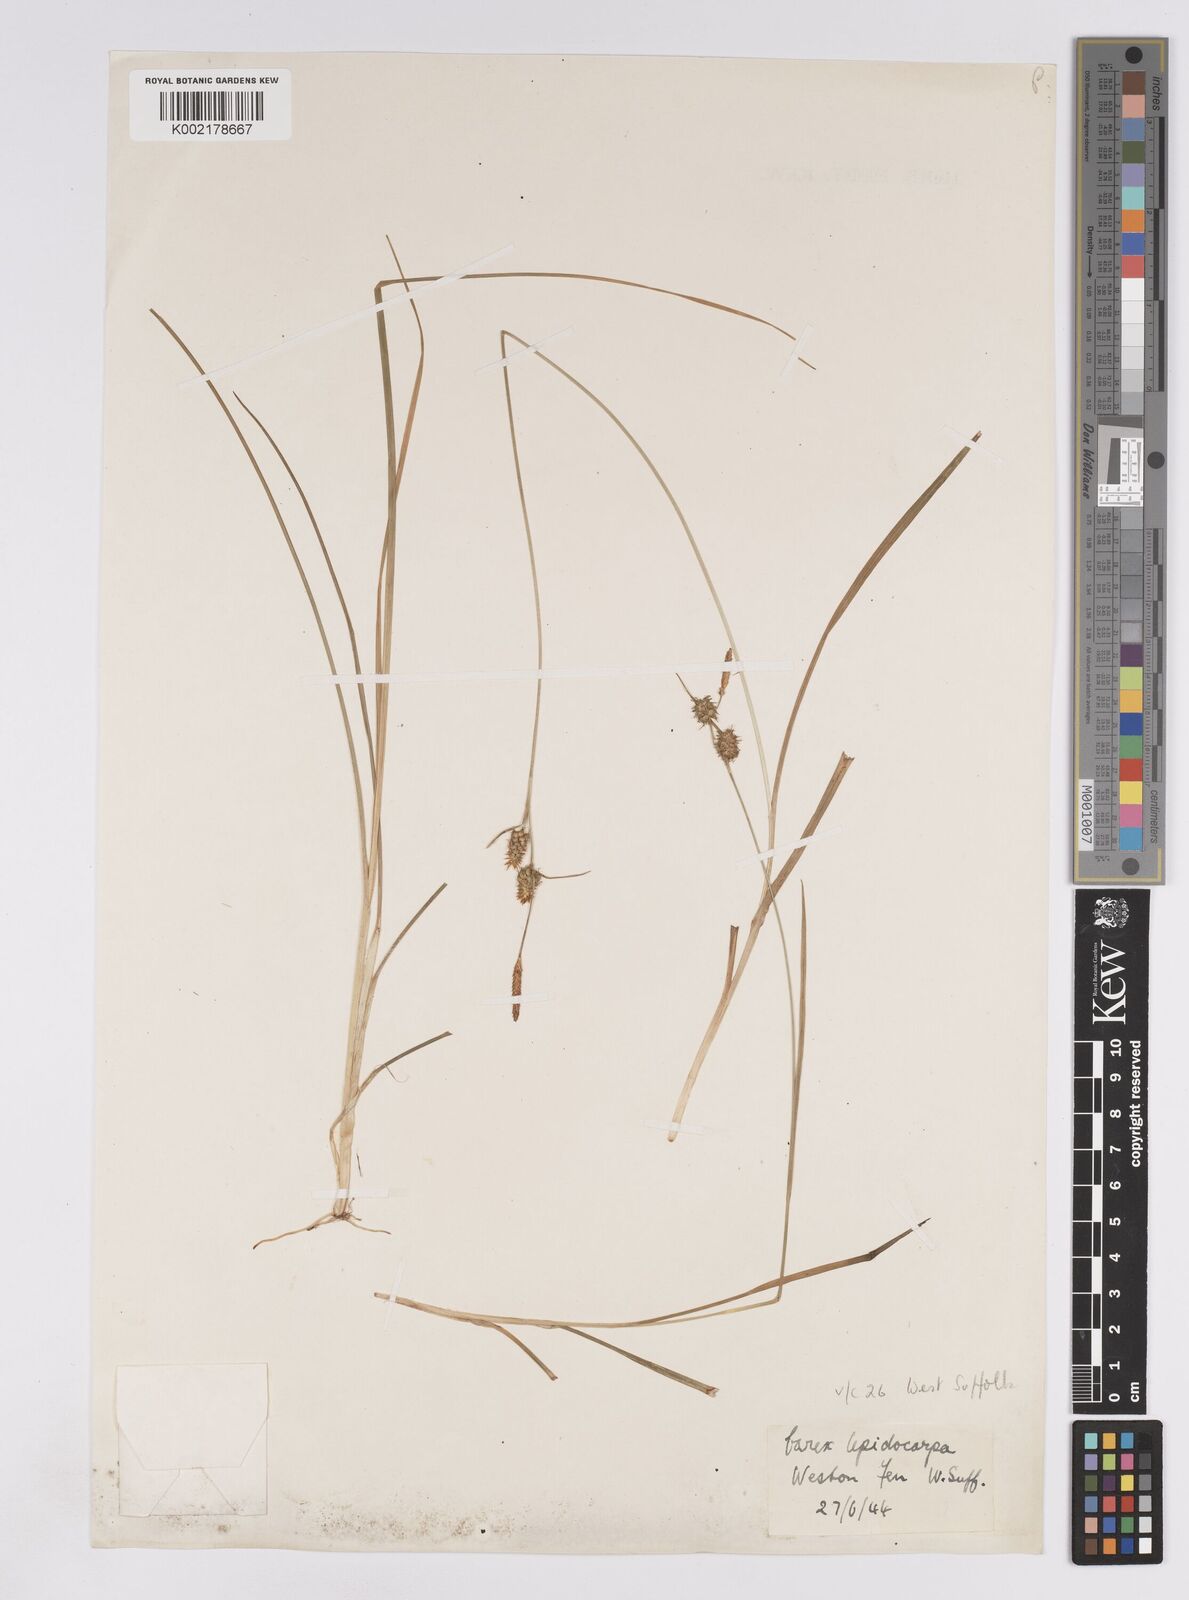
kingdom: Plantae
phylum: Tracheophyta
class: Liliopsida
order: Poales
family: Cyperaceae
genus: Carex
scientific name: Carex lepidocarpa
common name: Long-stalked yellow-sedge
